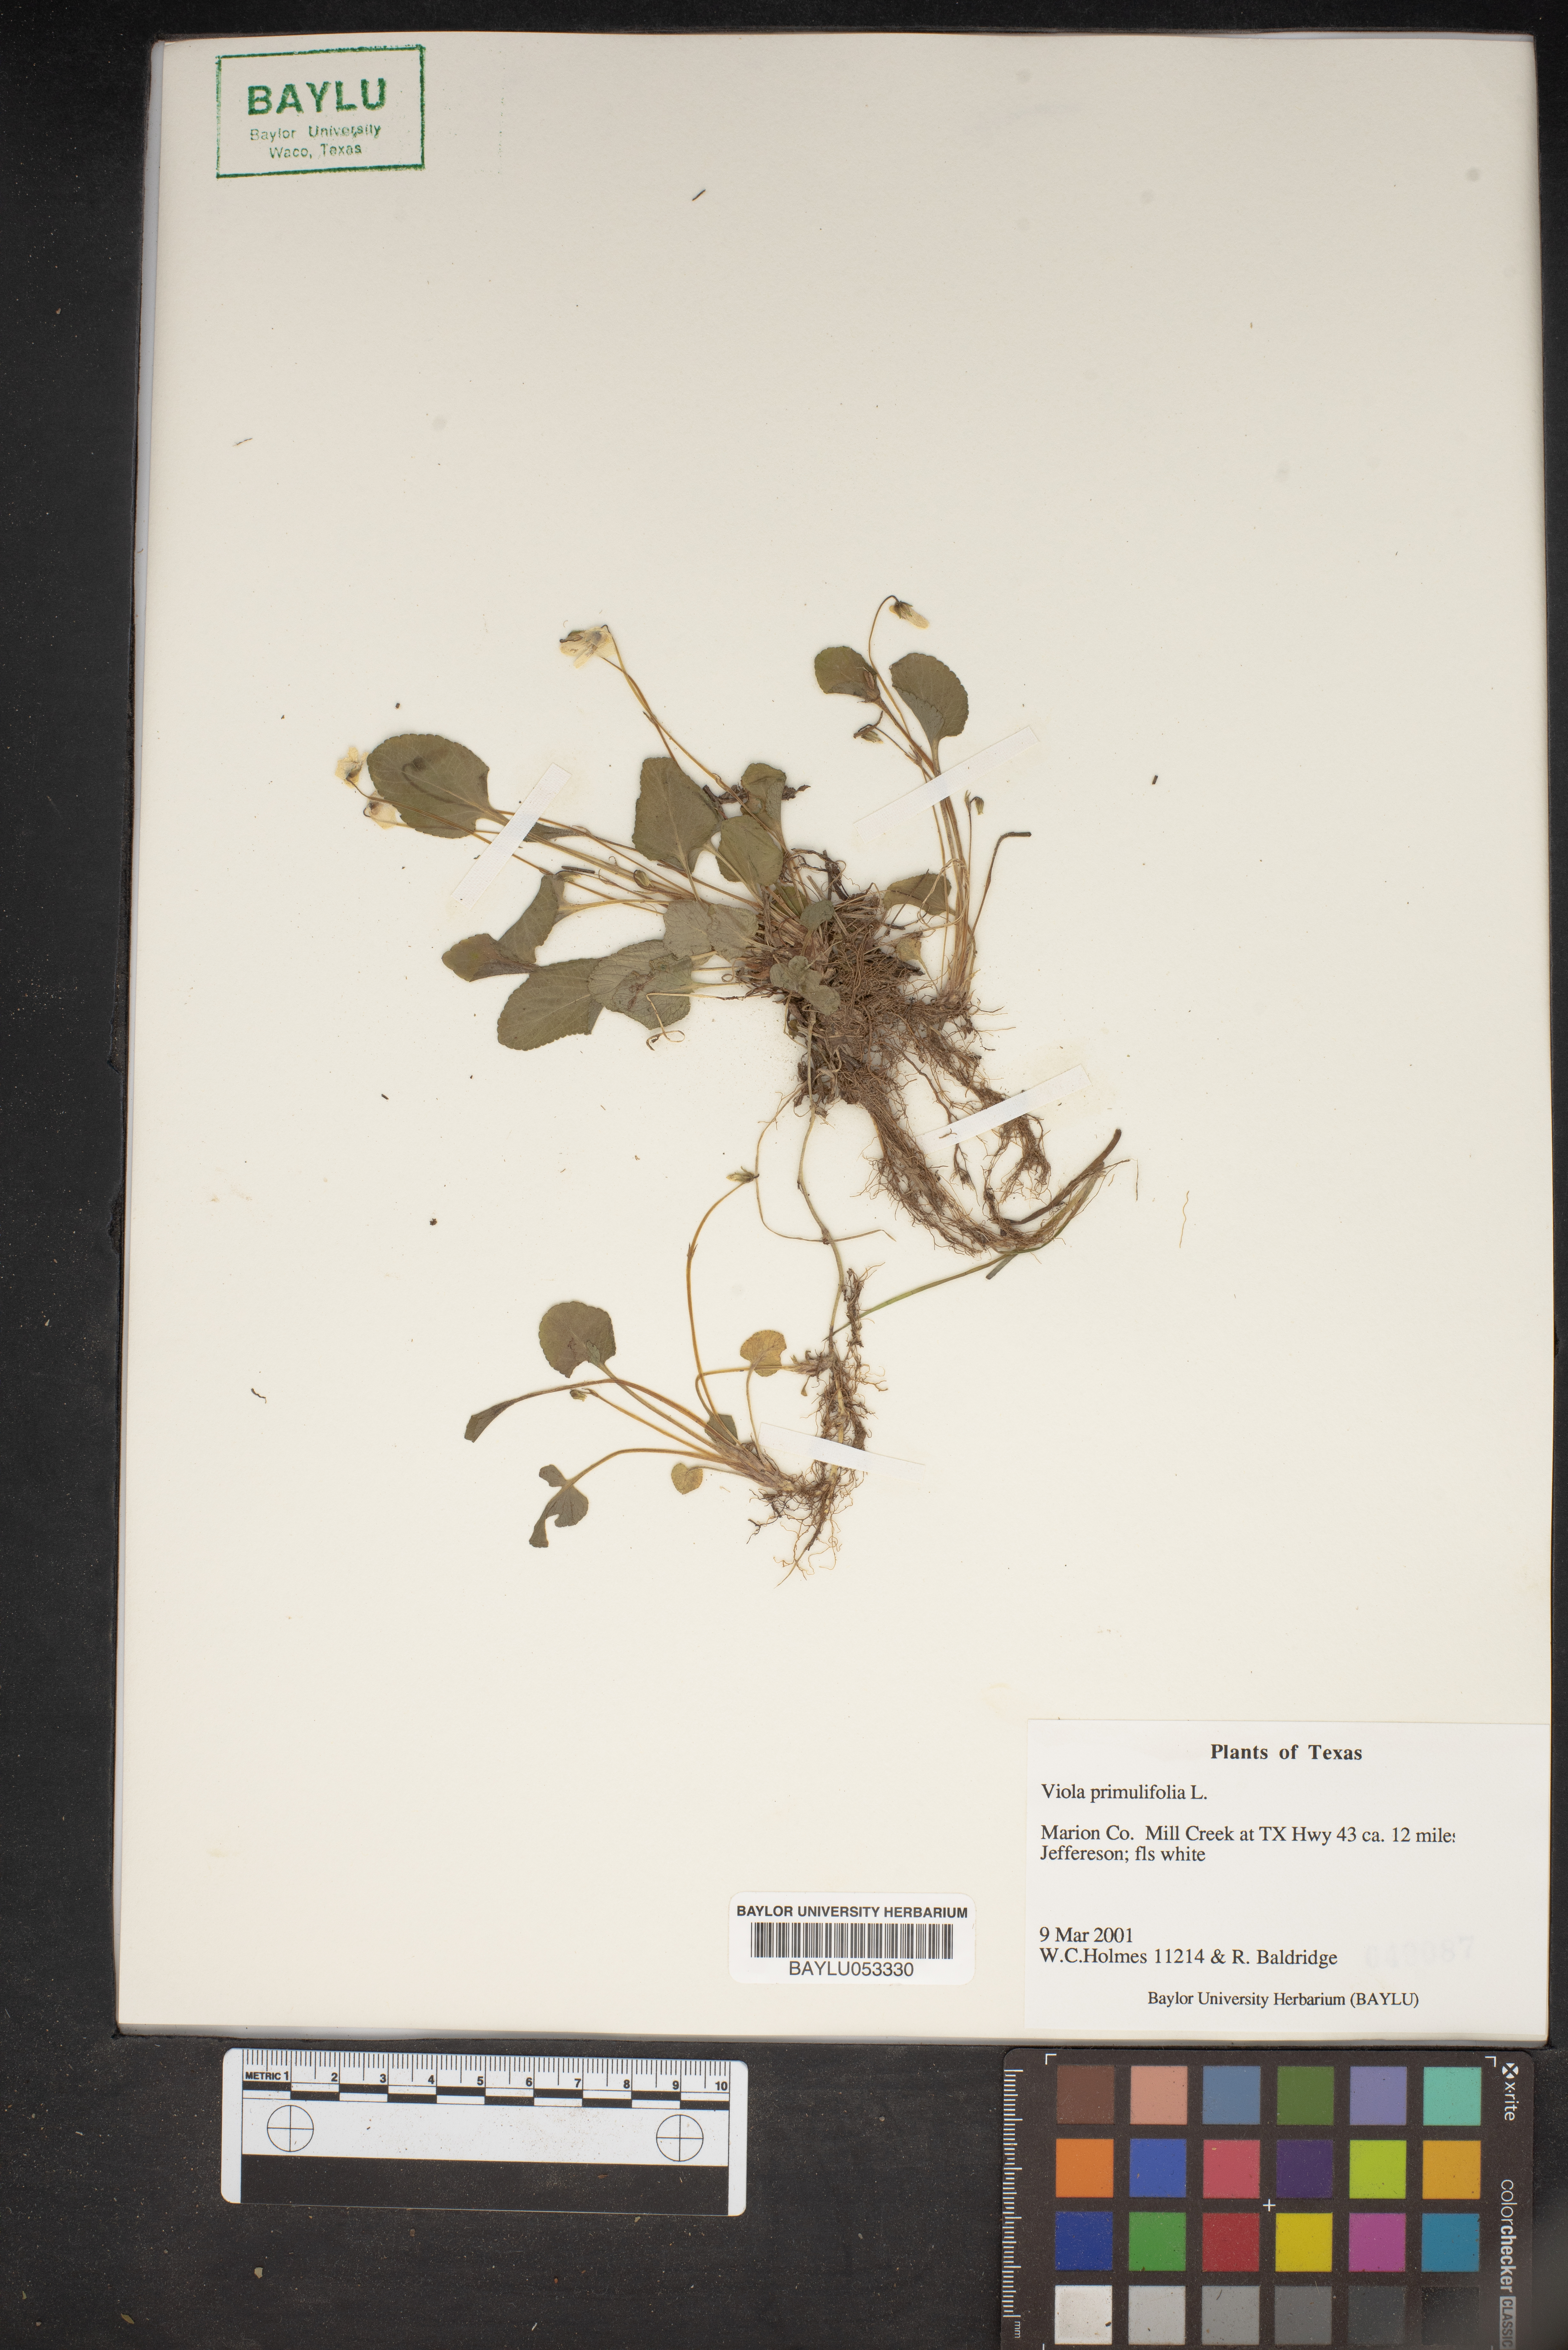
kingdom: Plantae
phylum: Tracheophyta
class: Magnoliopsida
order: Malpighiales
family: Violaceae
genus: Viola
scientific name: Viola primulifolia
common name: Primrose-leaf violet
